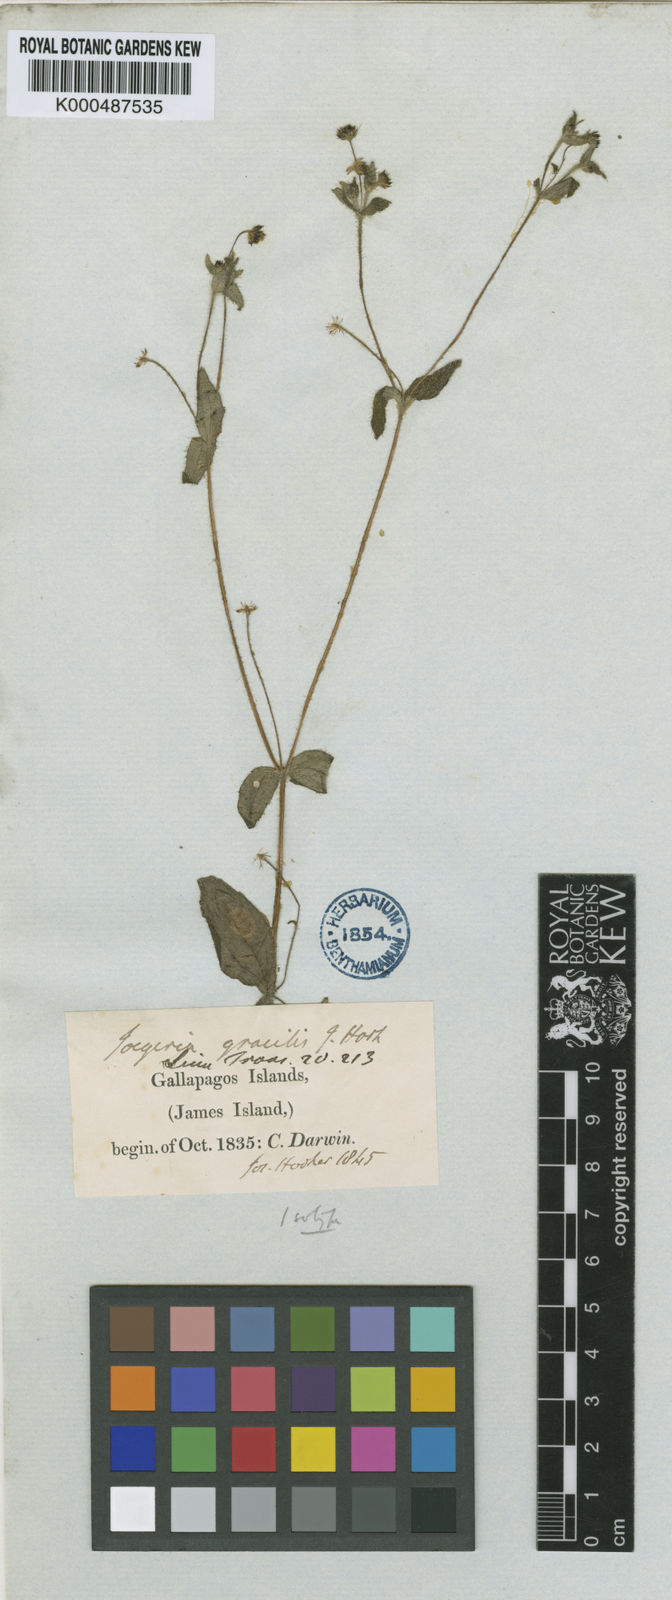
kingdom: Plantae
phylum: Tracheophyta
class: Magnoliopsida
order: Asterales
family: Asteraceae
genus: Jaegeria
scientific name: Jaegeria gracilis
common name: Galapagos jaegeria
